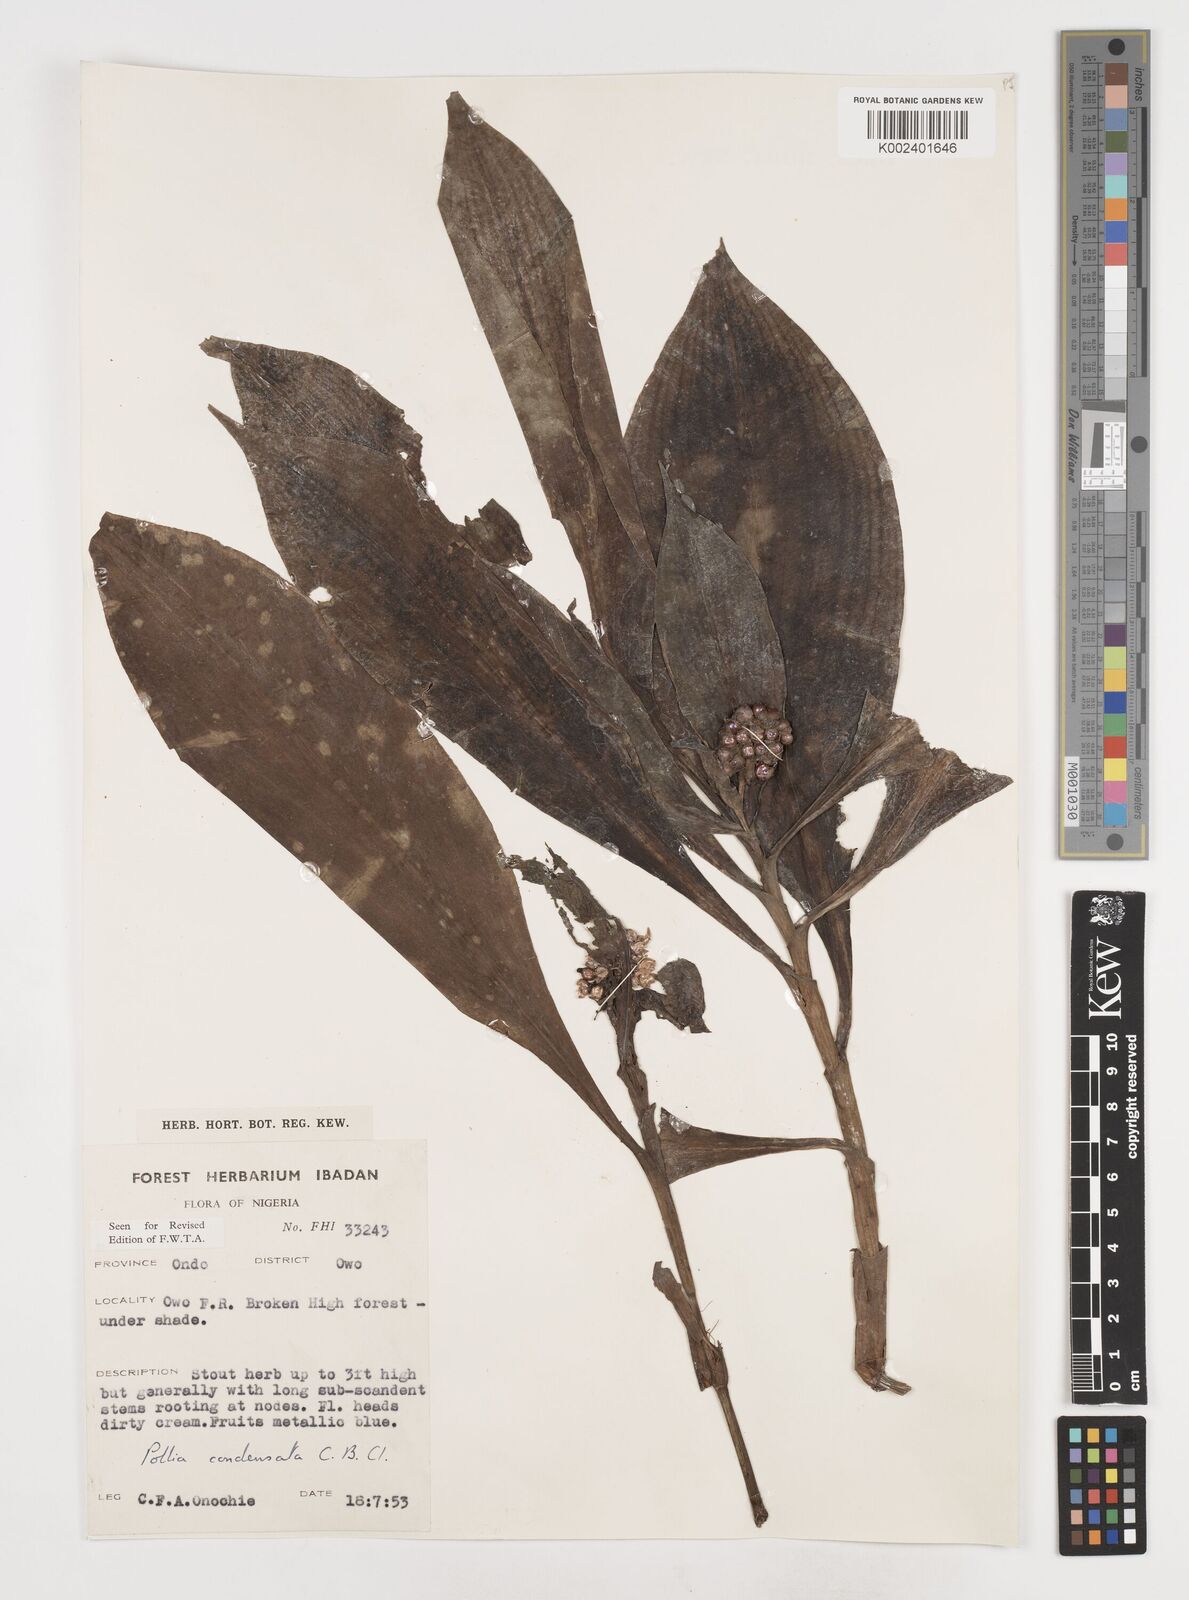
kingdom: Plantae
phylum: Tracheophyta
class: Liliopsida
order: Commelinales
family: Commelinaceae
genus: Pollia
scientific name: Pollia condensata
